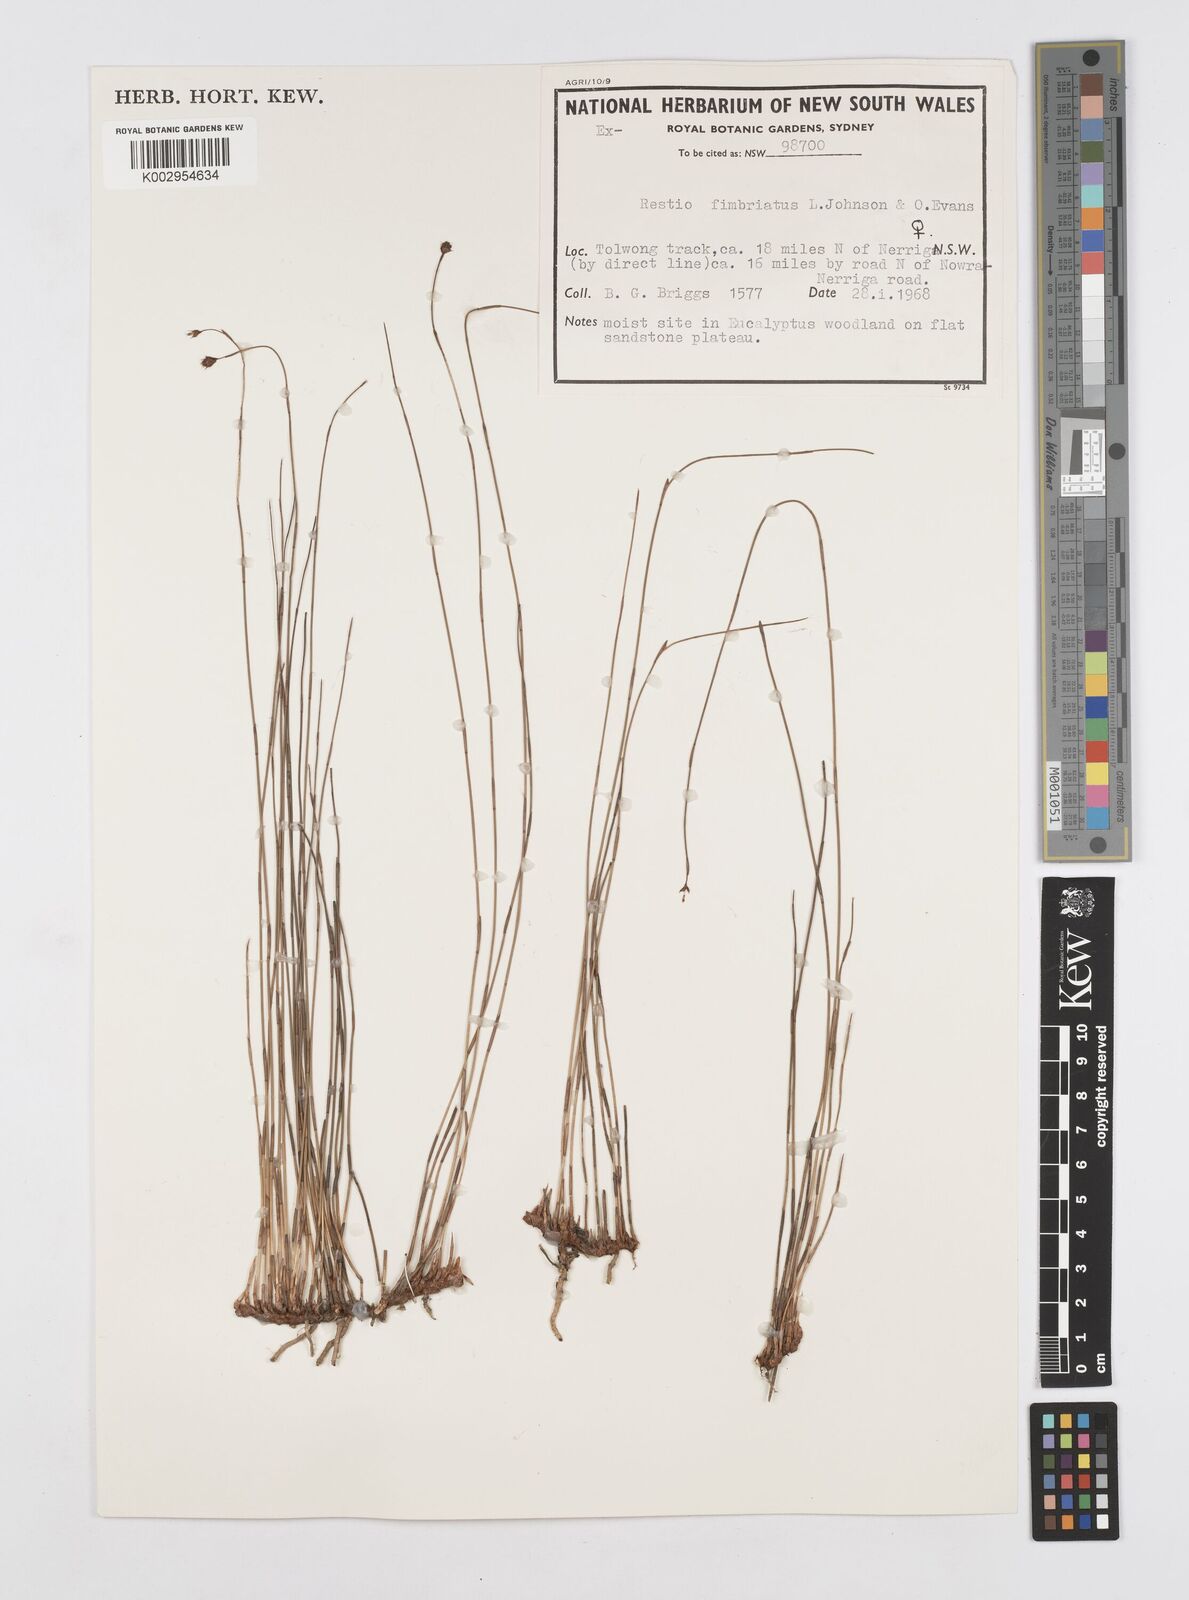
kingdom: Plantae
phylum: Tracheophyta
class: Liliopsida
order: Poales
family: Restionaceae
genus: Baloskion
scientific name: Baloskion fimbriatum
